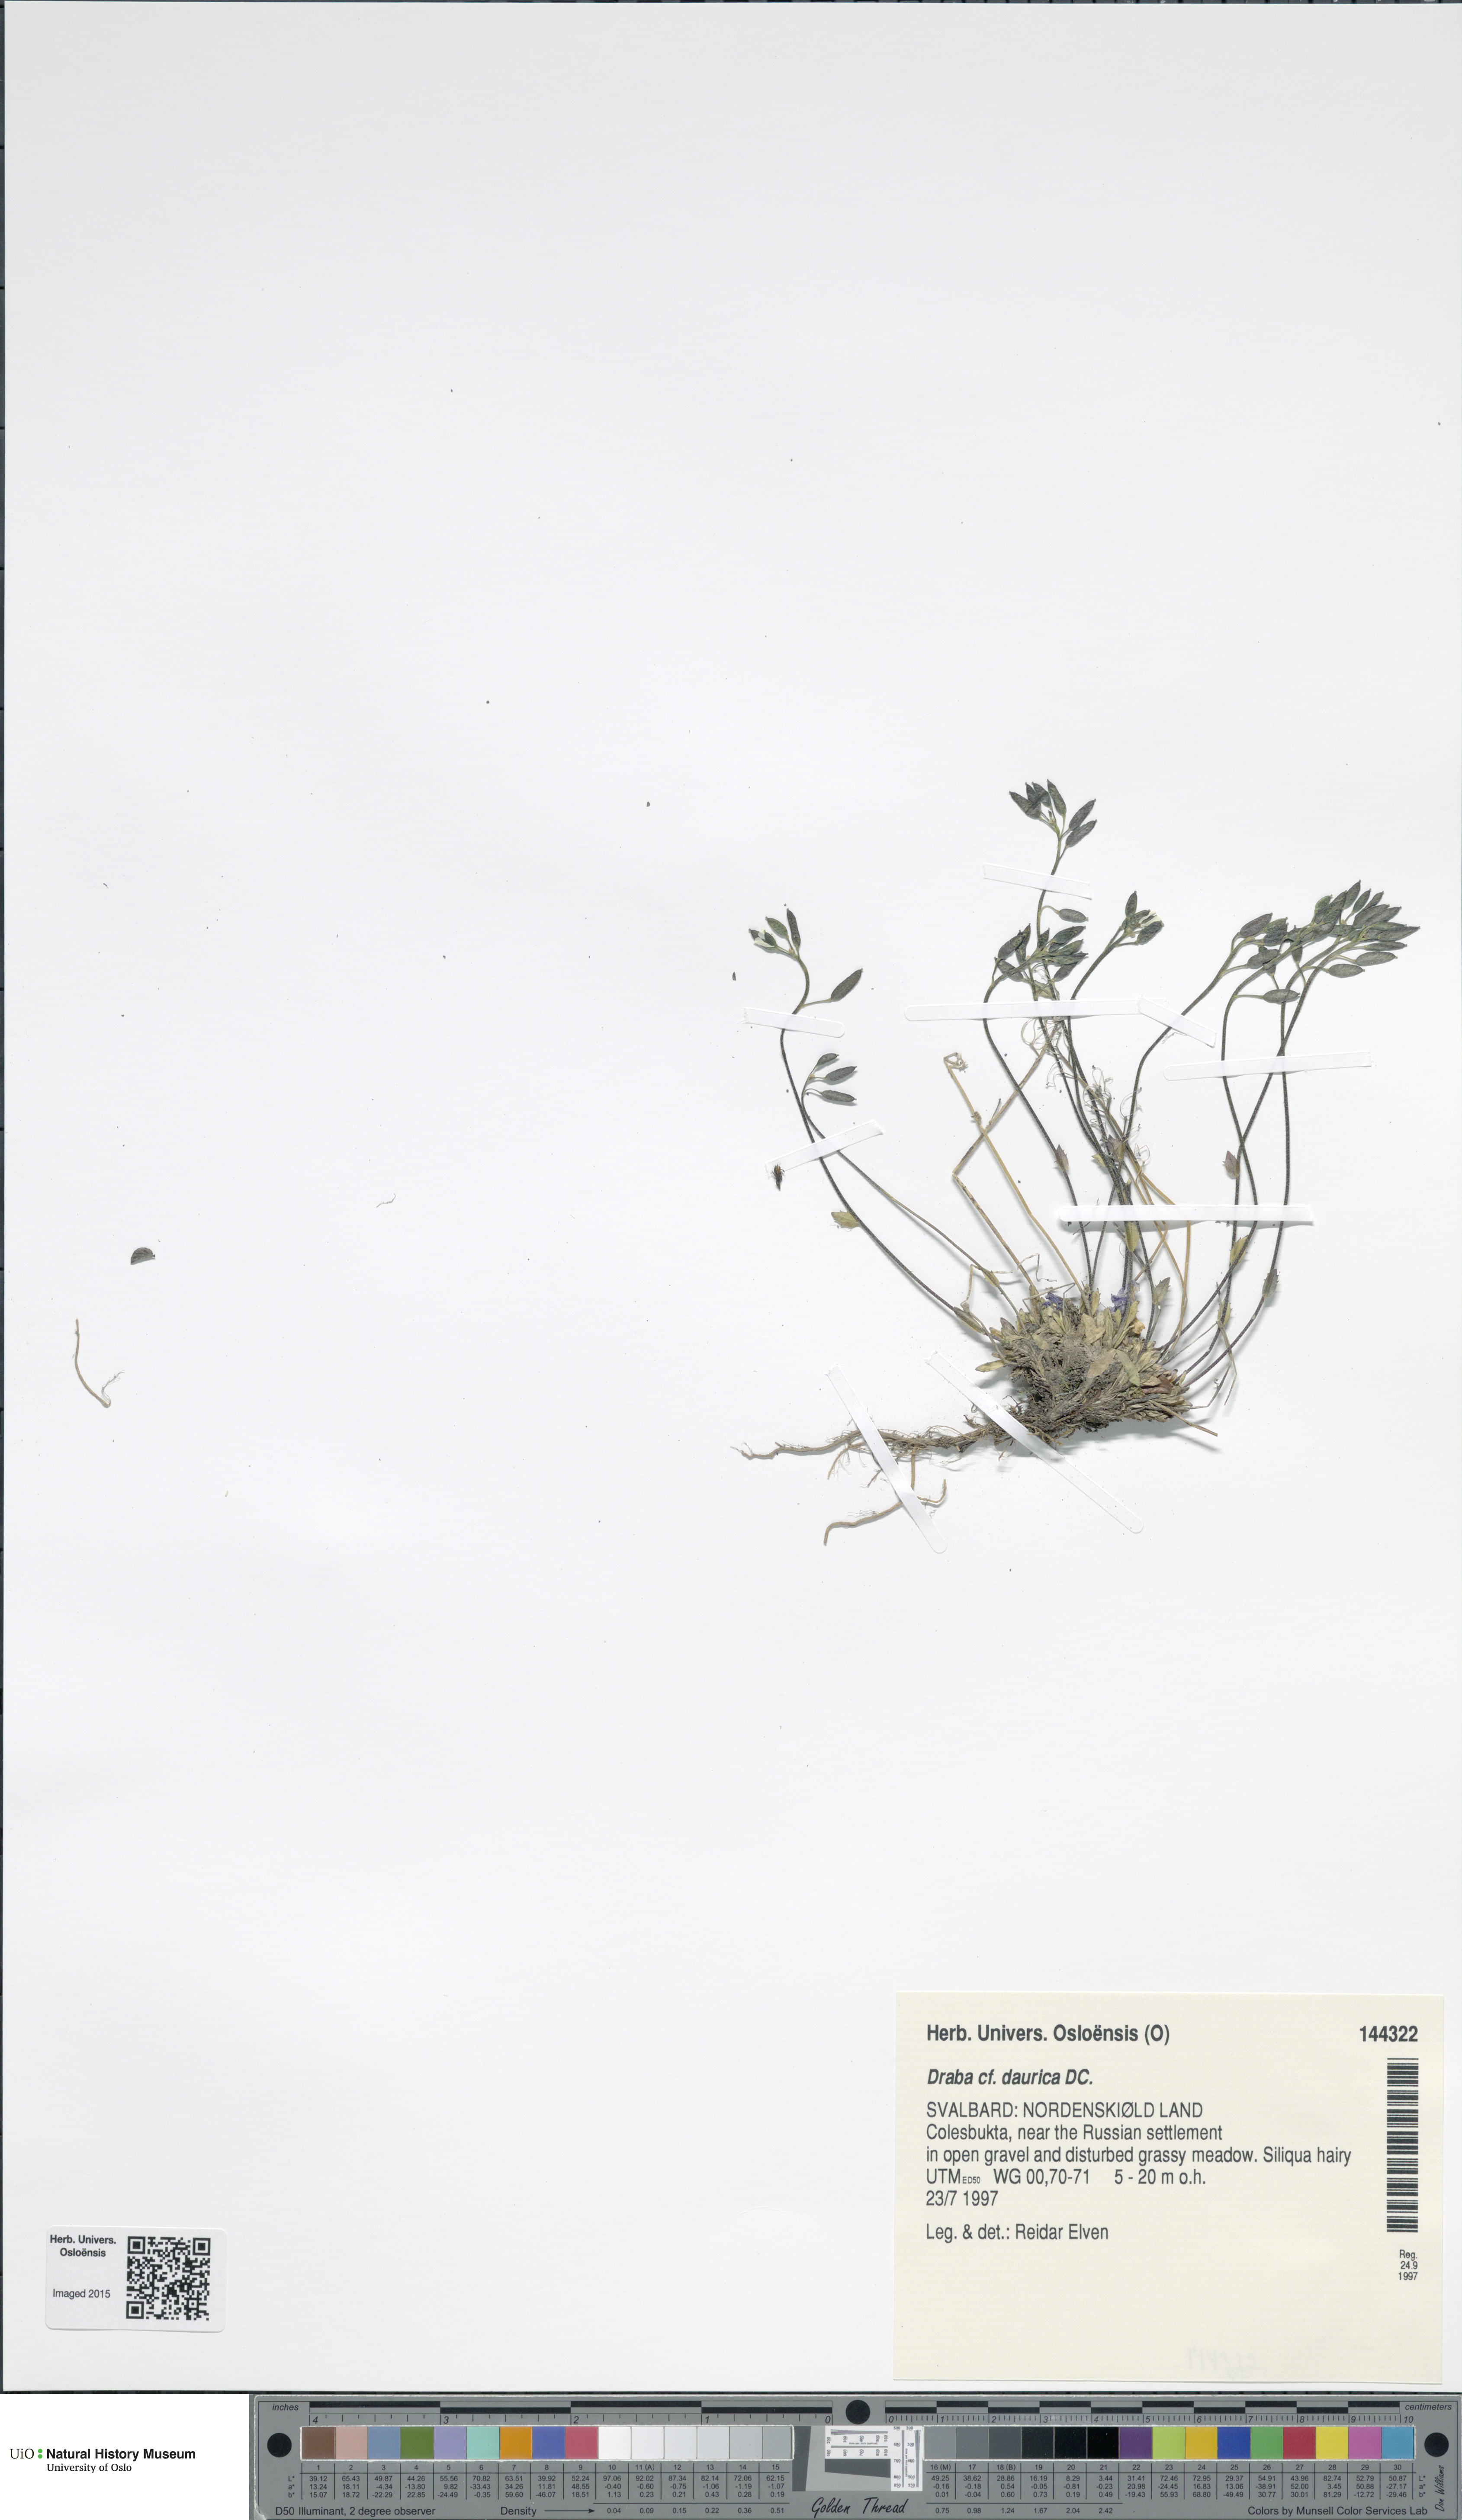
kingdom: Plantae
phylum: Tracheophyta
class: Magnoliopsida
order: Brassicales
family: Brassicaceae
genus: Draba
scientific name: Draba glabella
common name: Glaucous draba
